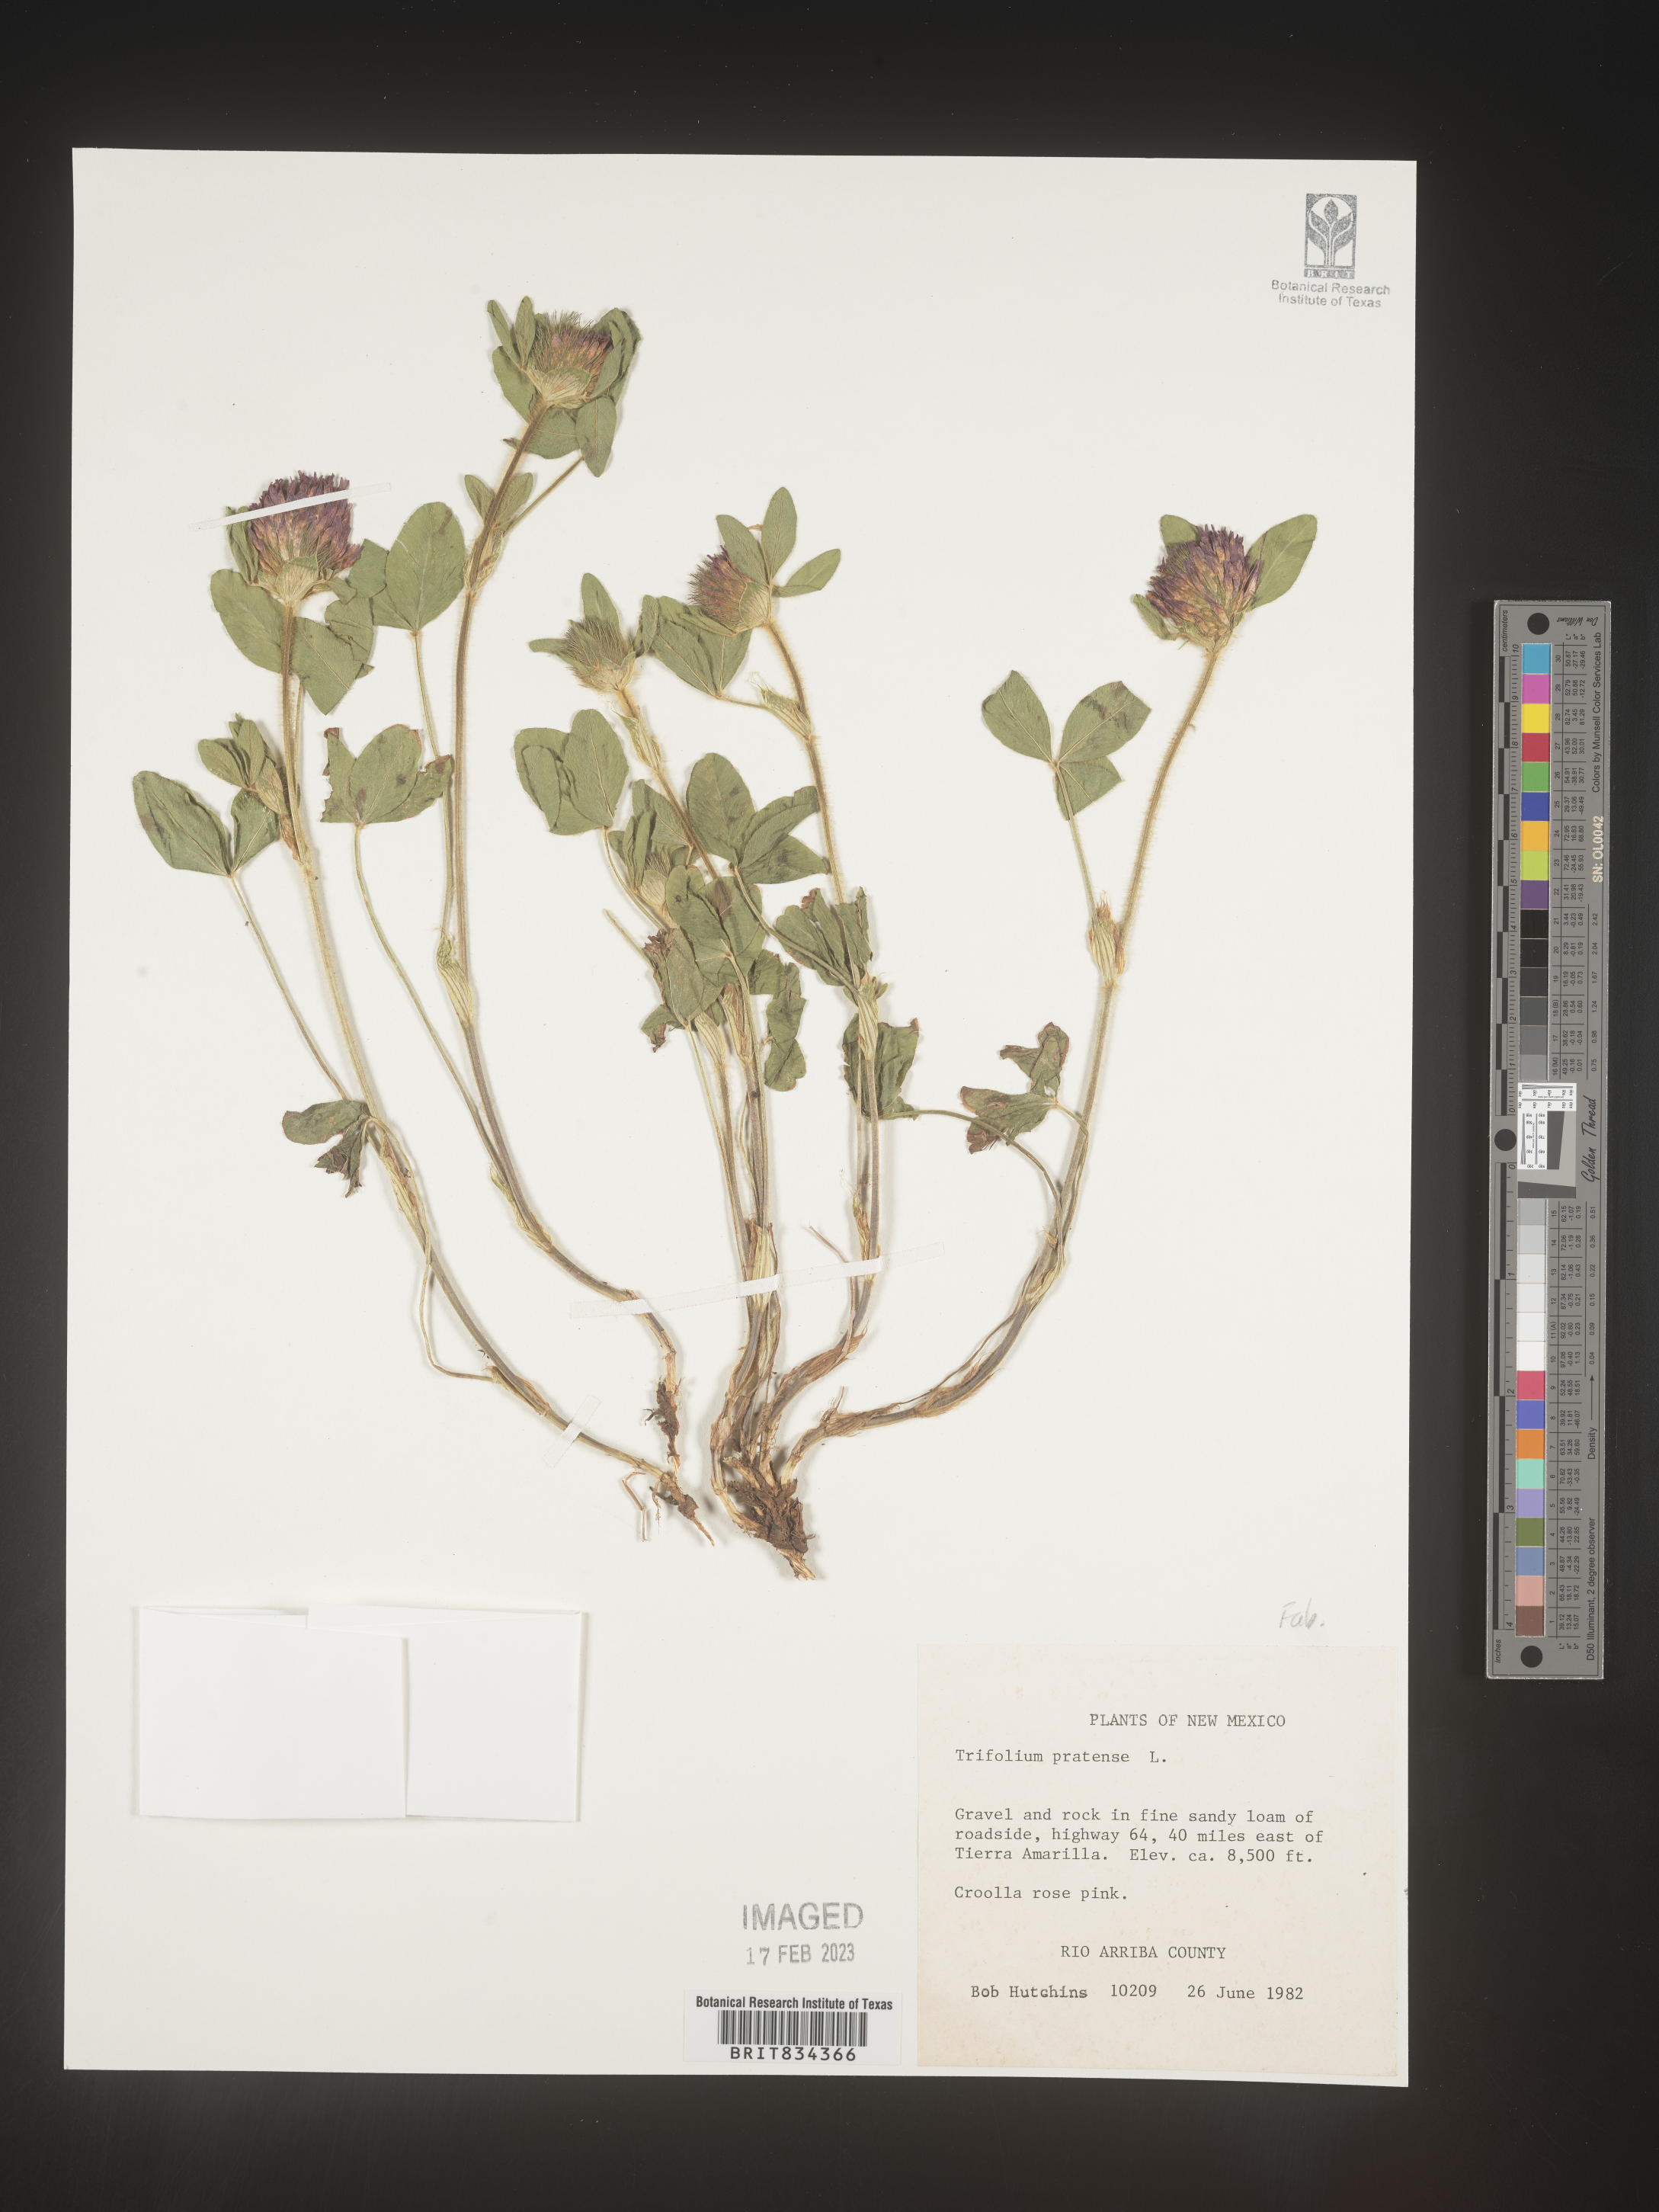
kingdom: Plantae
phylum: Tracheophyta
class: Magnoliopsida
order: Fabales
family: Fabaceae
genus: Trifolium
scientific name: Trifolium pratense
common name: Red clover
